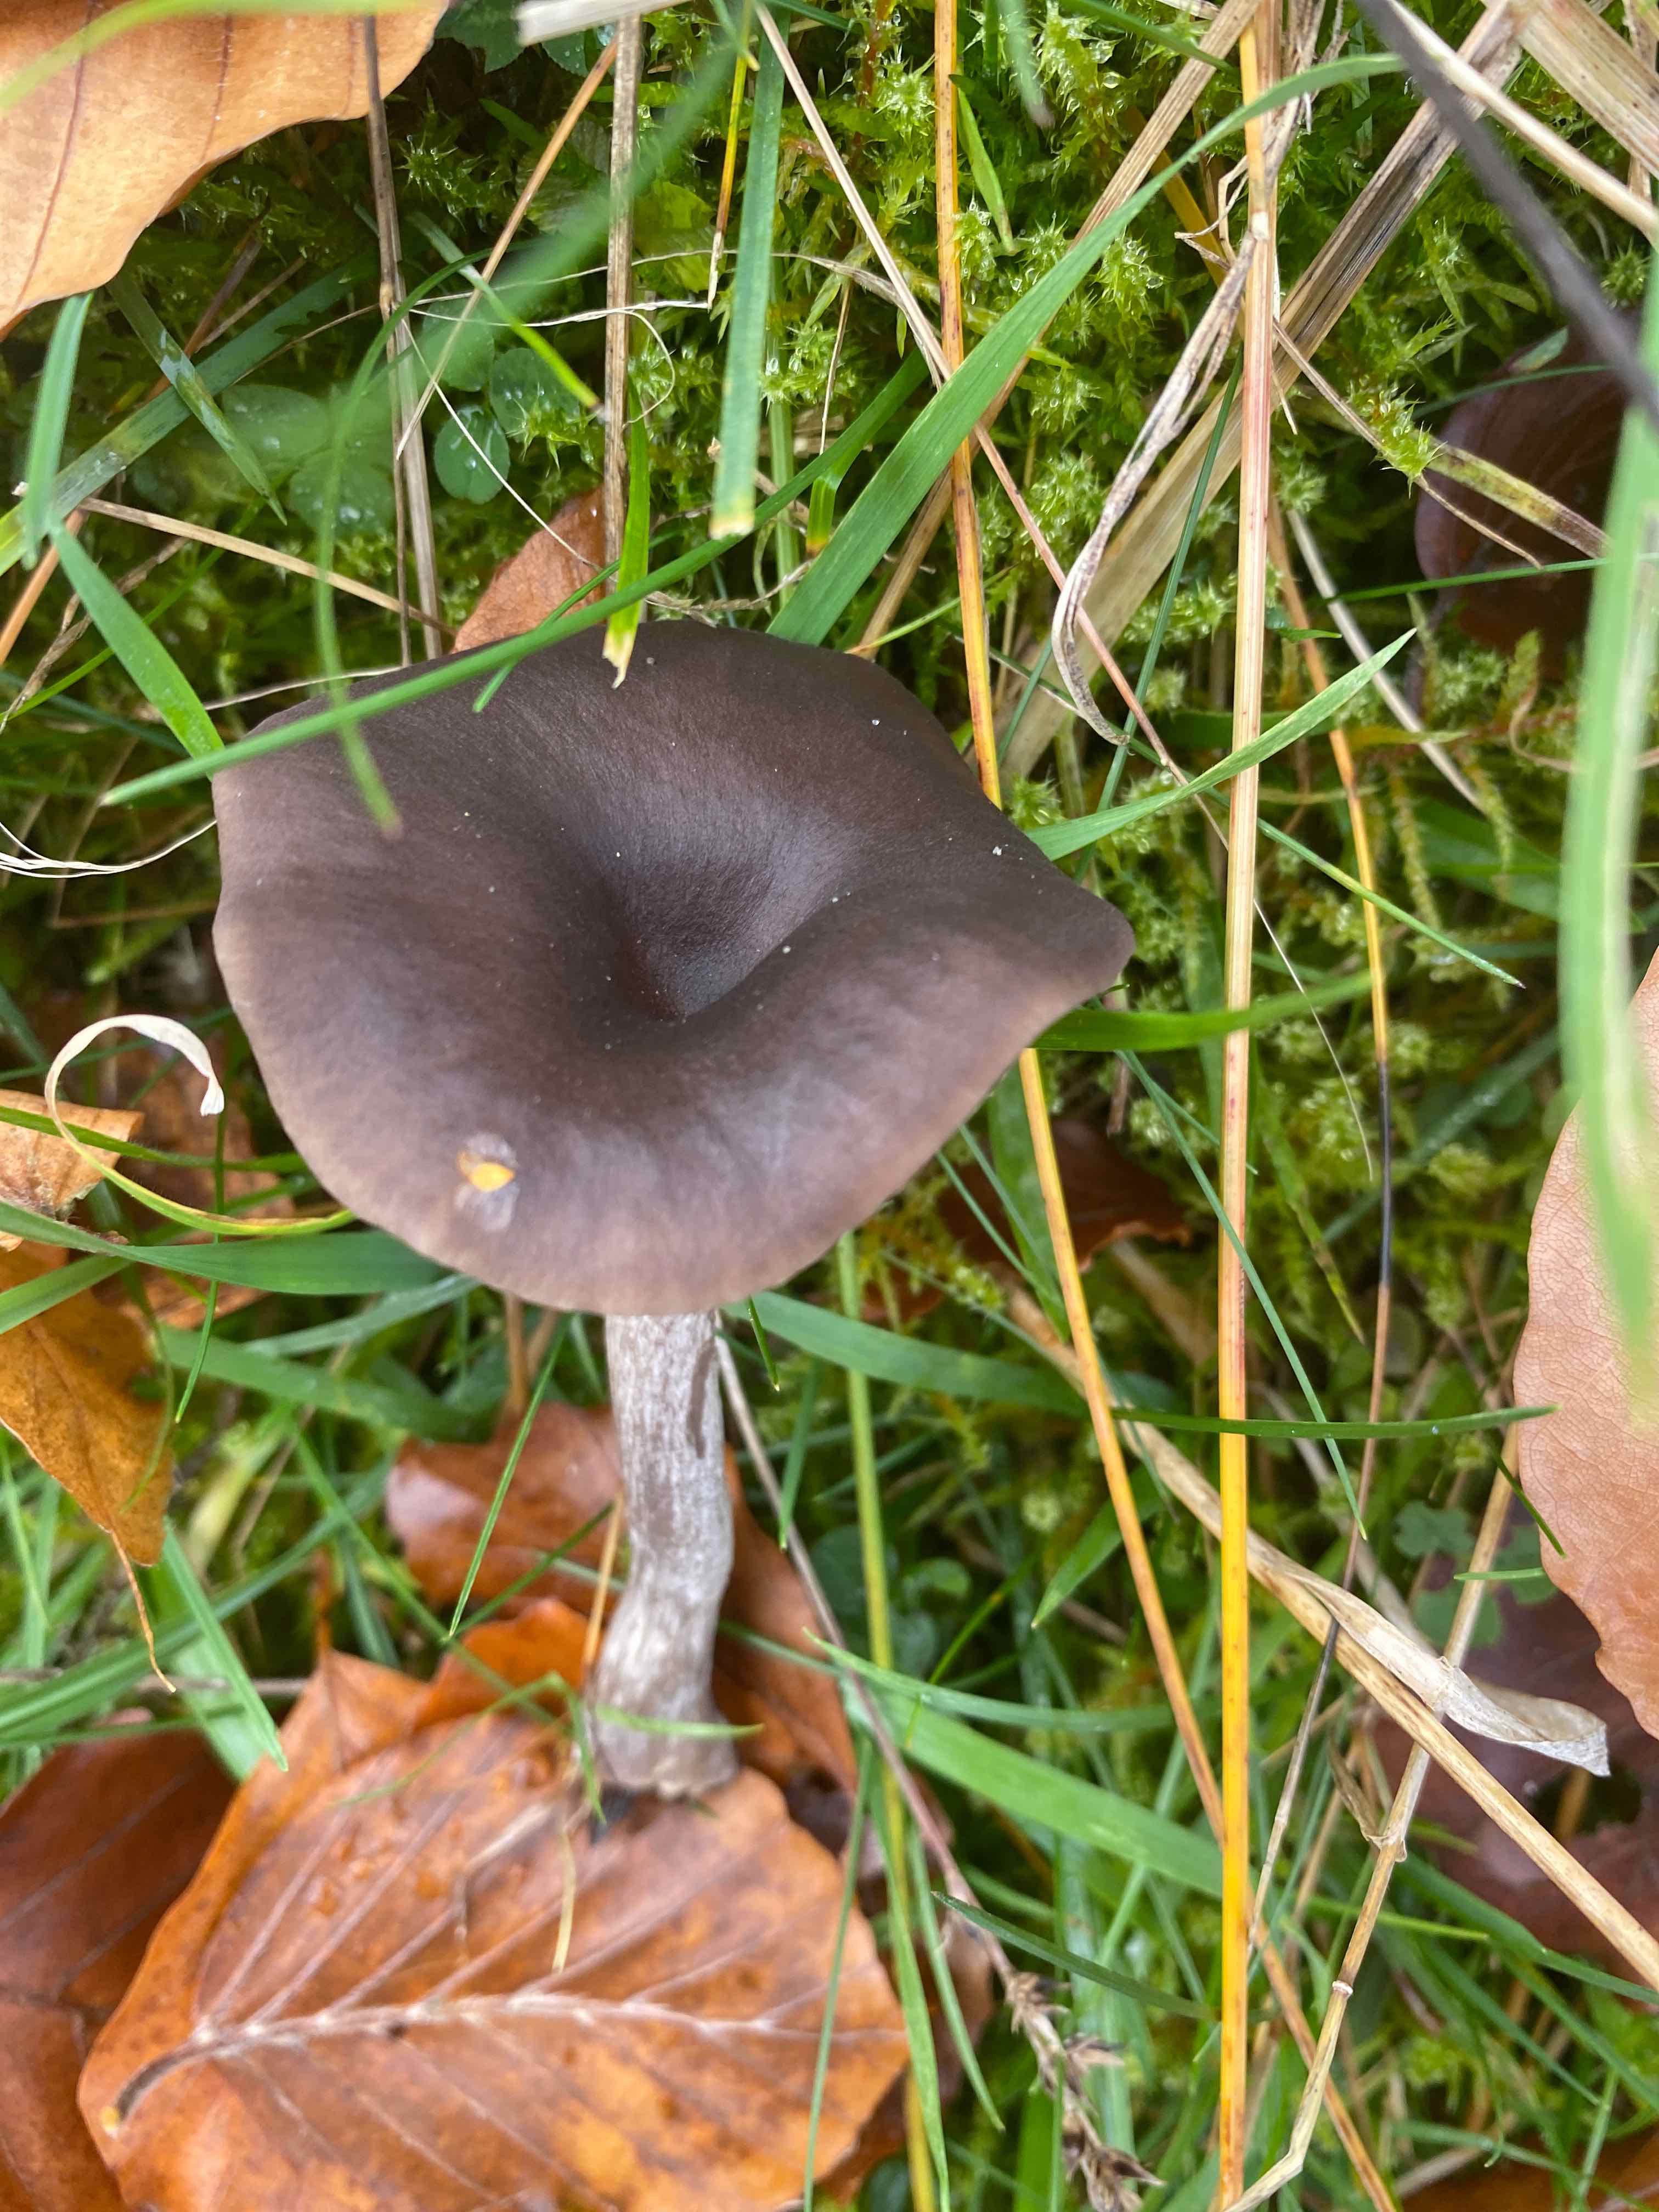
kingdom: Fungi
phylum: Basidiomycota
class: Agaricomycetes
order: Agaricales
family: Pseudoclitocybaceae
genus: Pseudoclitocybe
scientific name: Pseudoclitocybe
